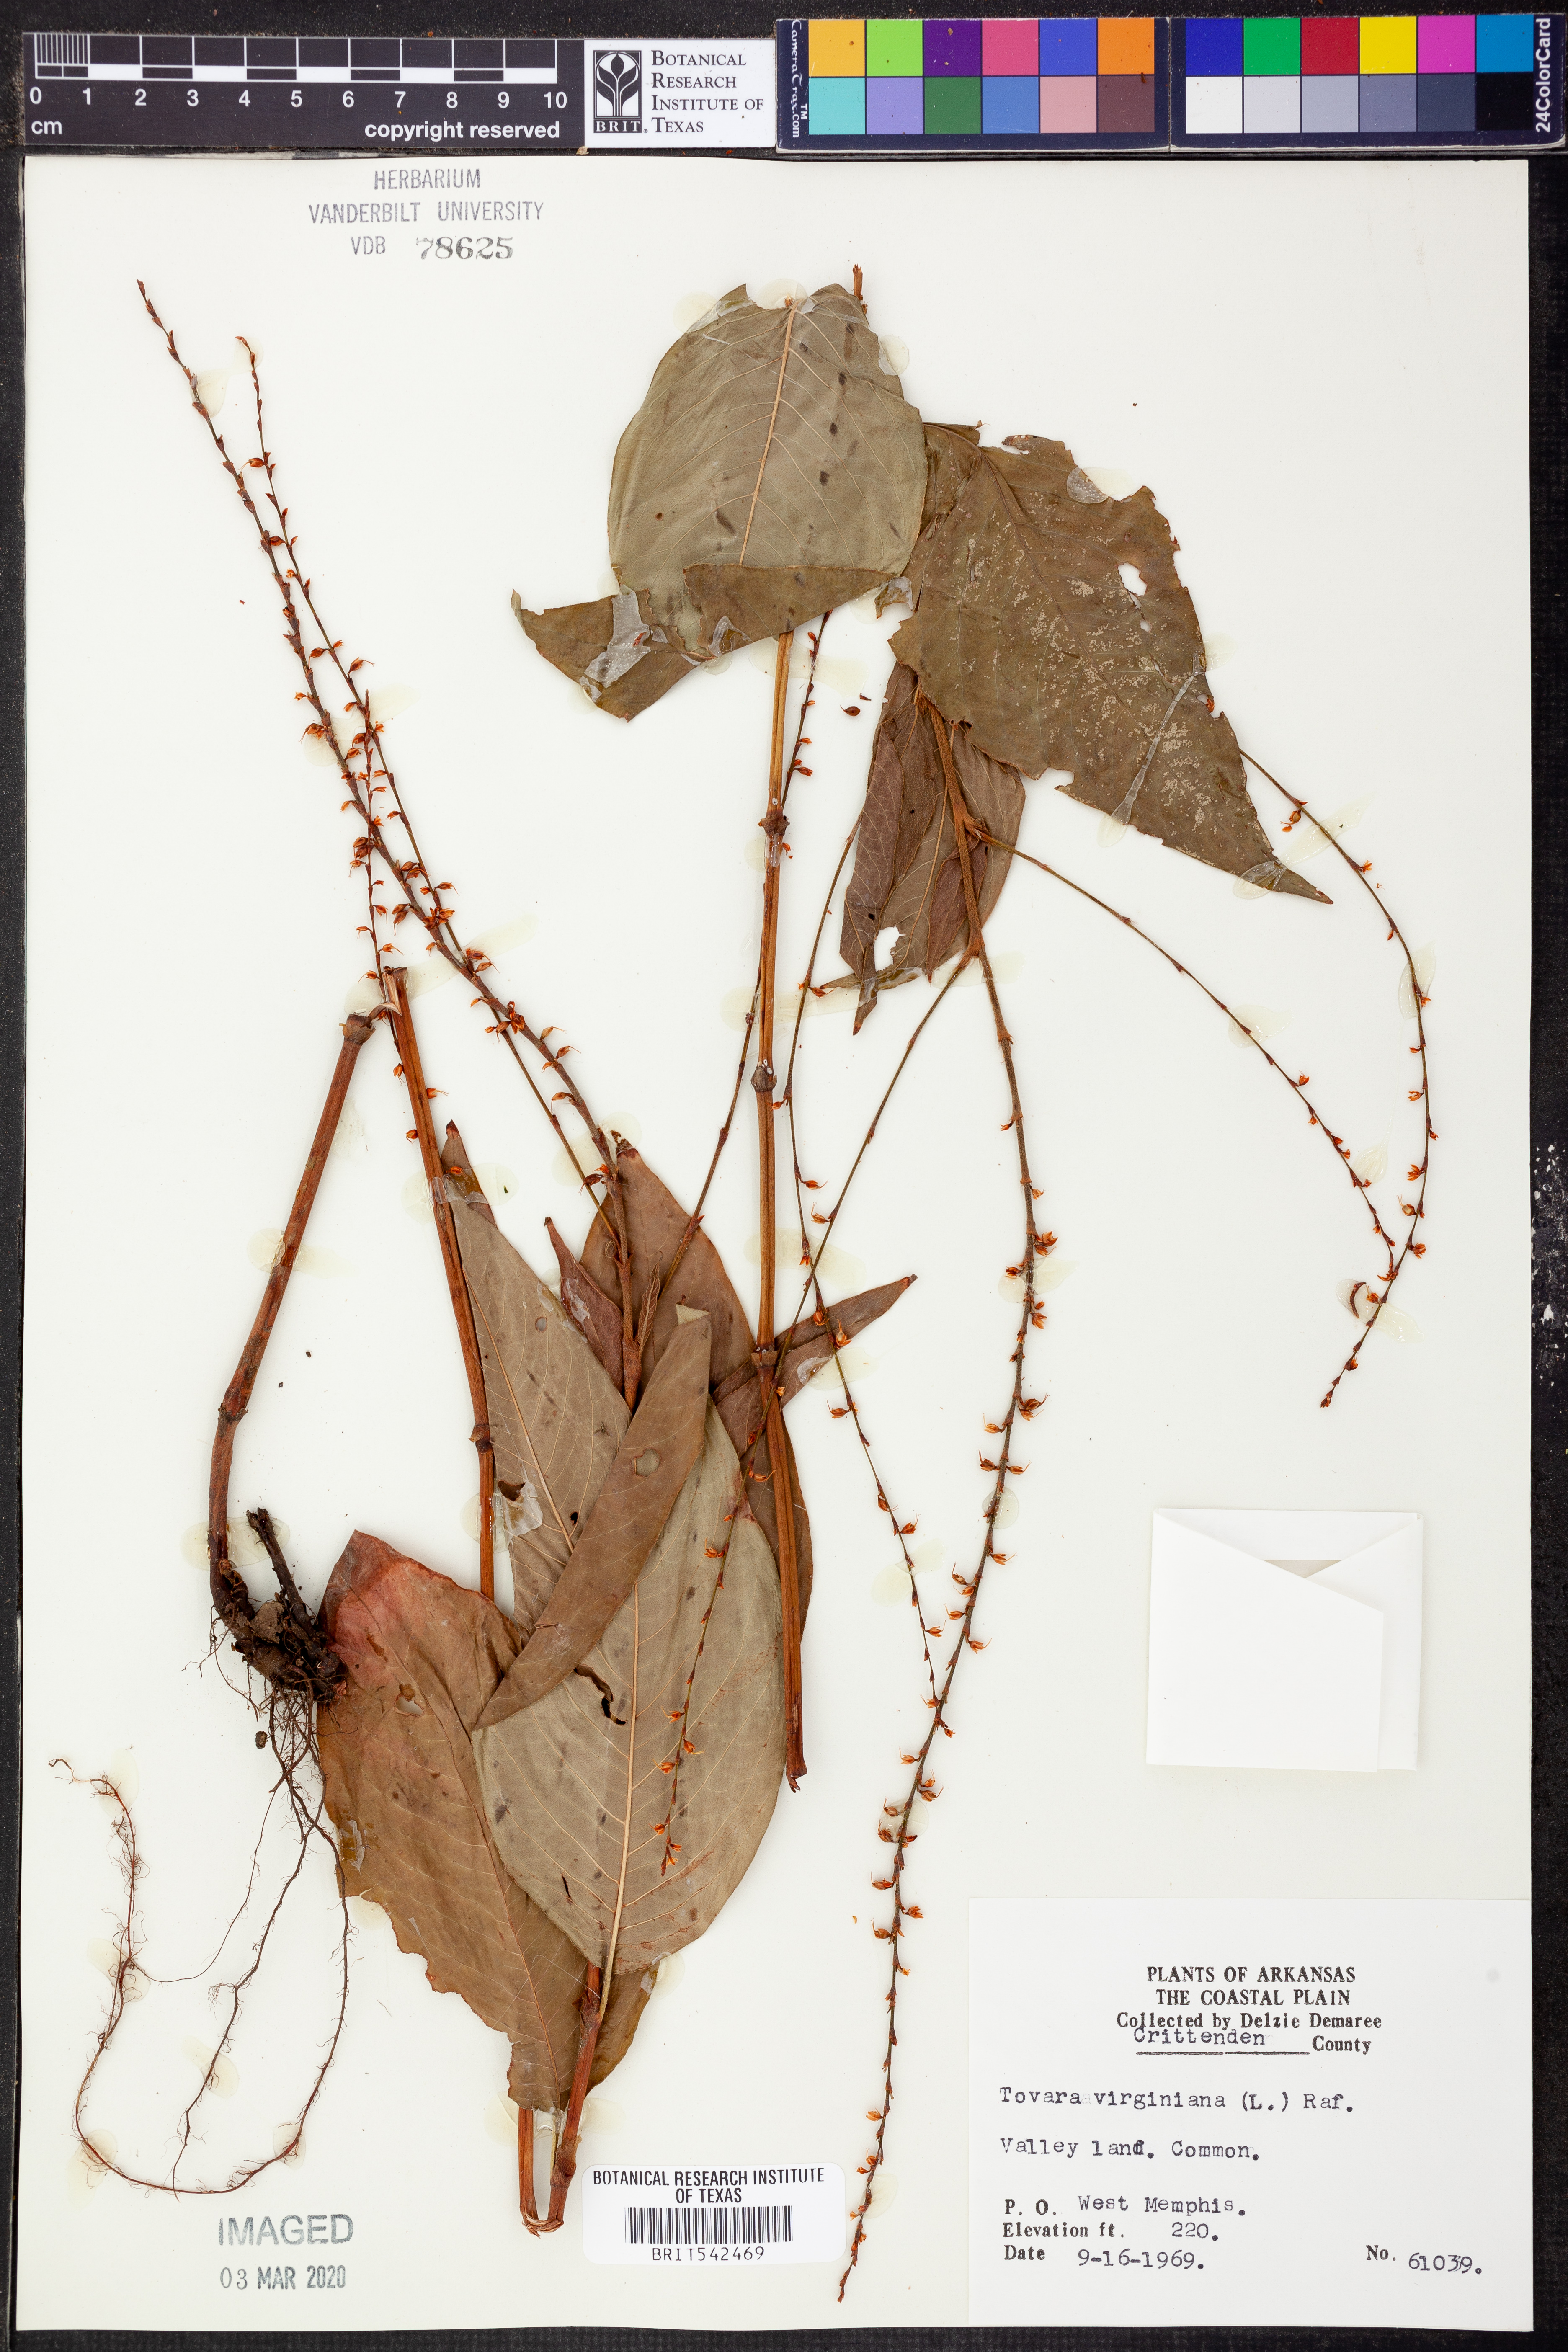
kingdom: Plantae
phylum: Tracheophyta
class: Magnoliopsida
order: Caryophyllales
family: Polygonaceae
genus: Persicaria
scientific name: Persicaria virginiana
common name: Jumpseed
